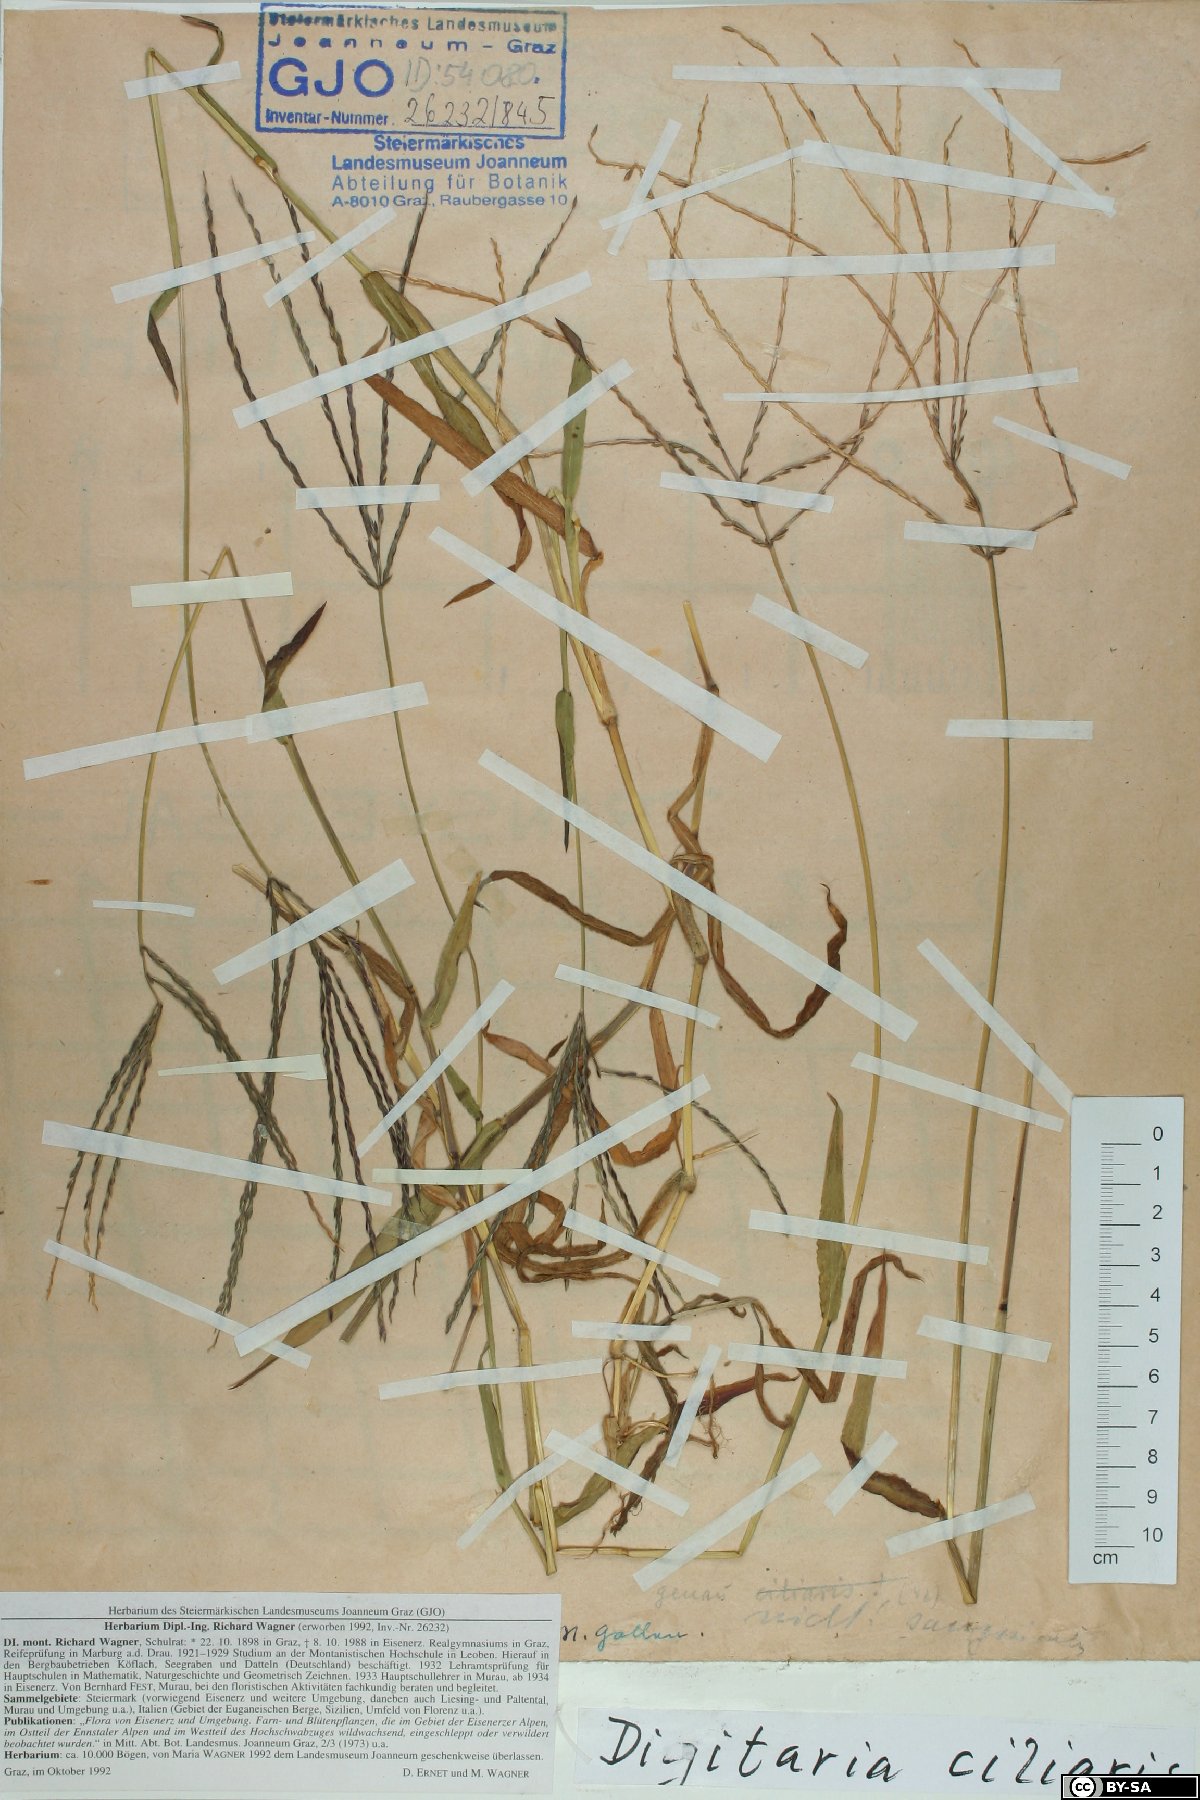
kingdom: Plantae
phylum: Tracheophyta
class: Liliopsida
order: Poales
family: Poaceae
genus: Digitaria
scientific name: Digitaria ciliaris
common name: Tropical finger-grass
